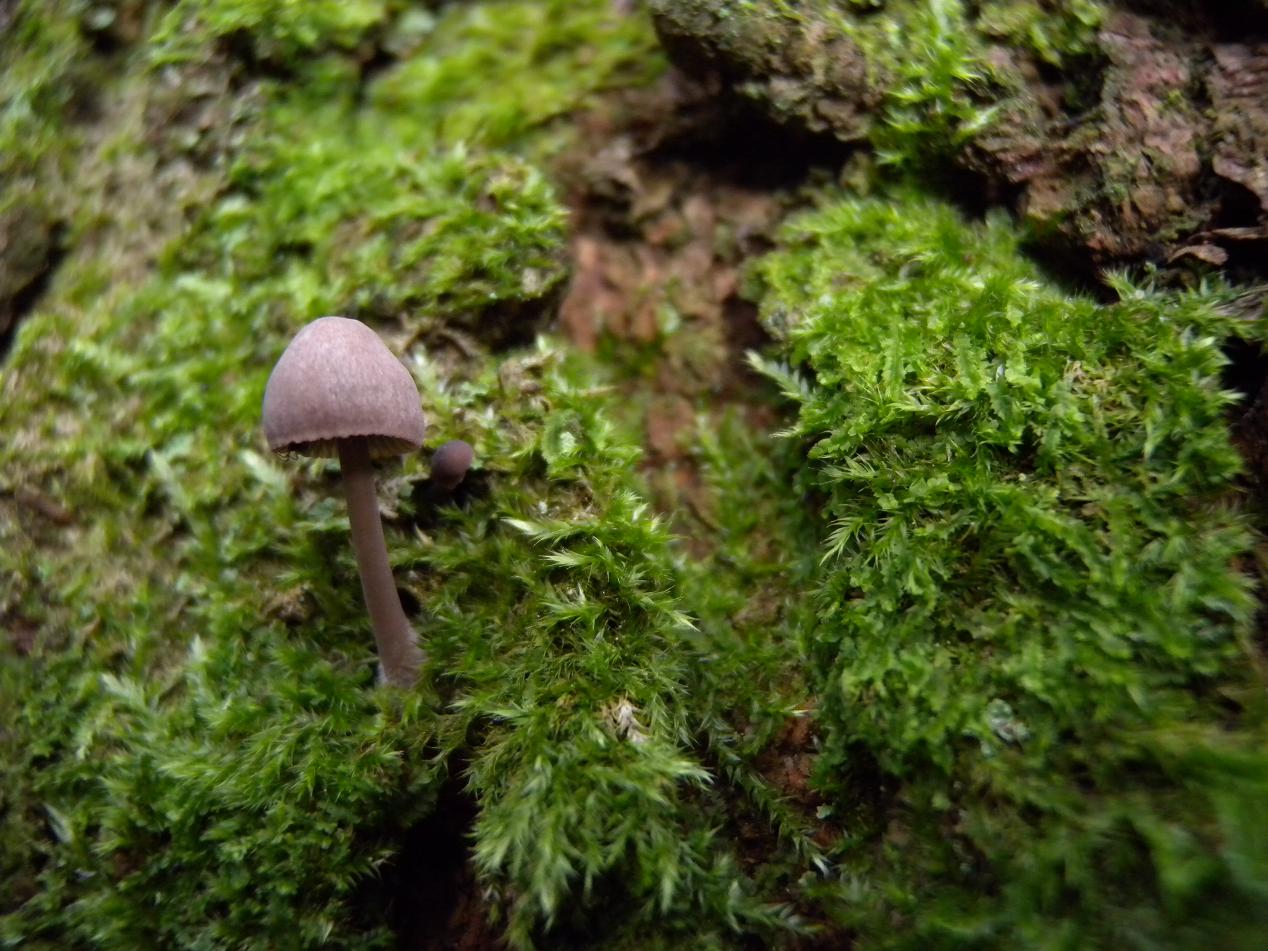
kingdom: Fungi
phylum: Basidiomycota
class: Agaricomycetes
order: Agaricales
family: Mycenaceae
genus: Mycena
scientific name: Mycena rubromarginata
